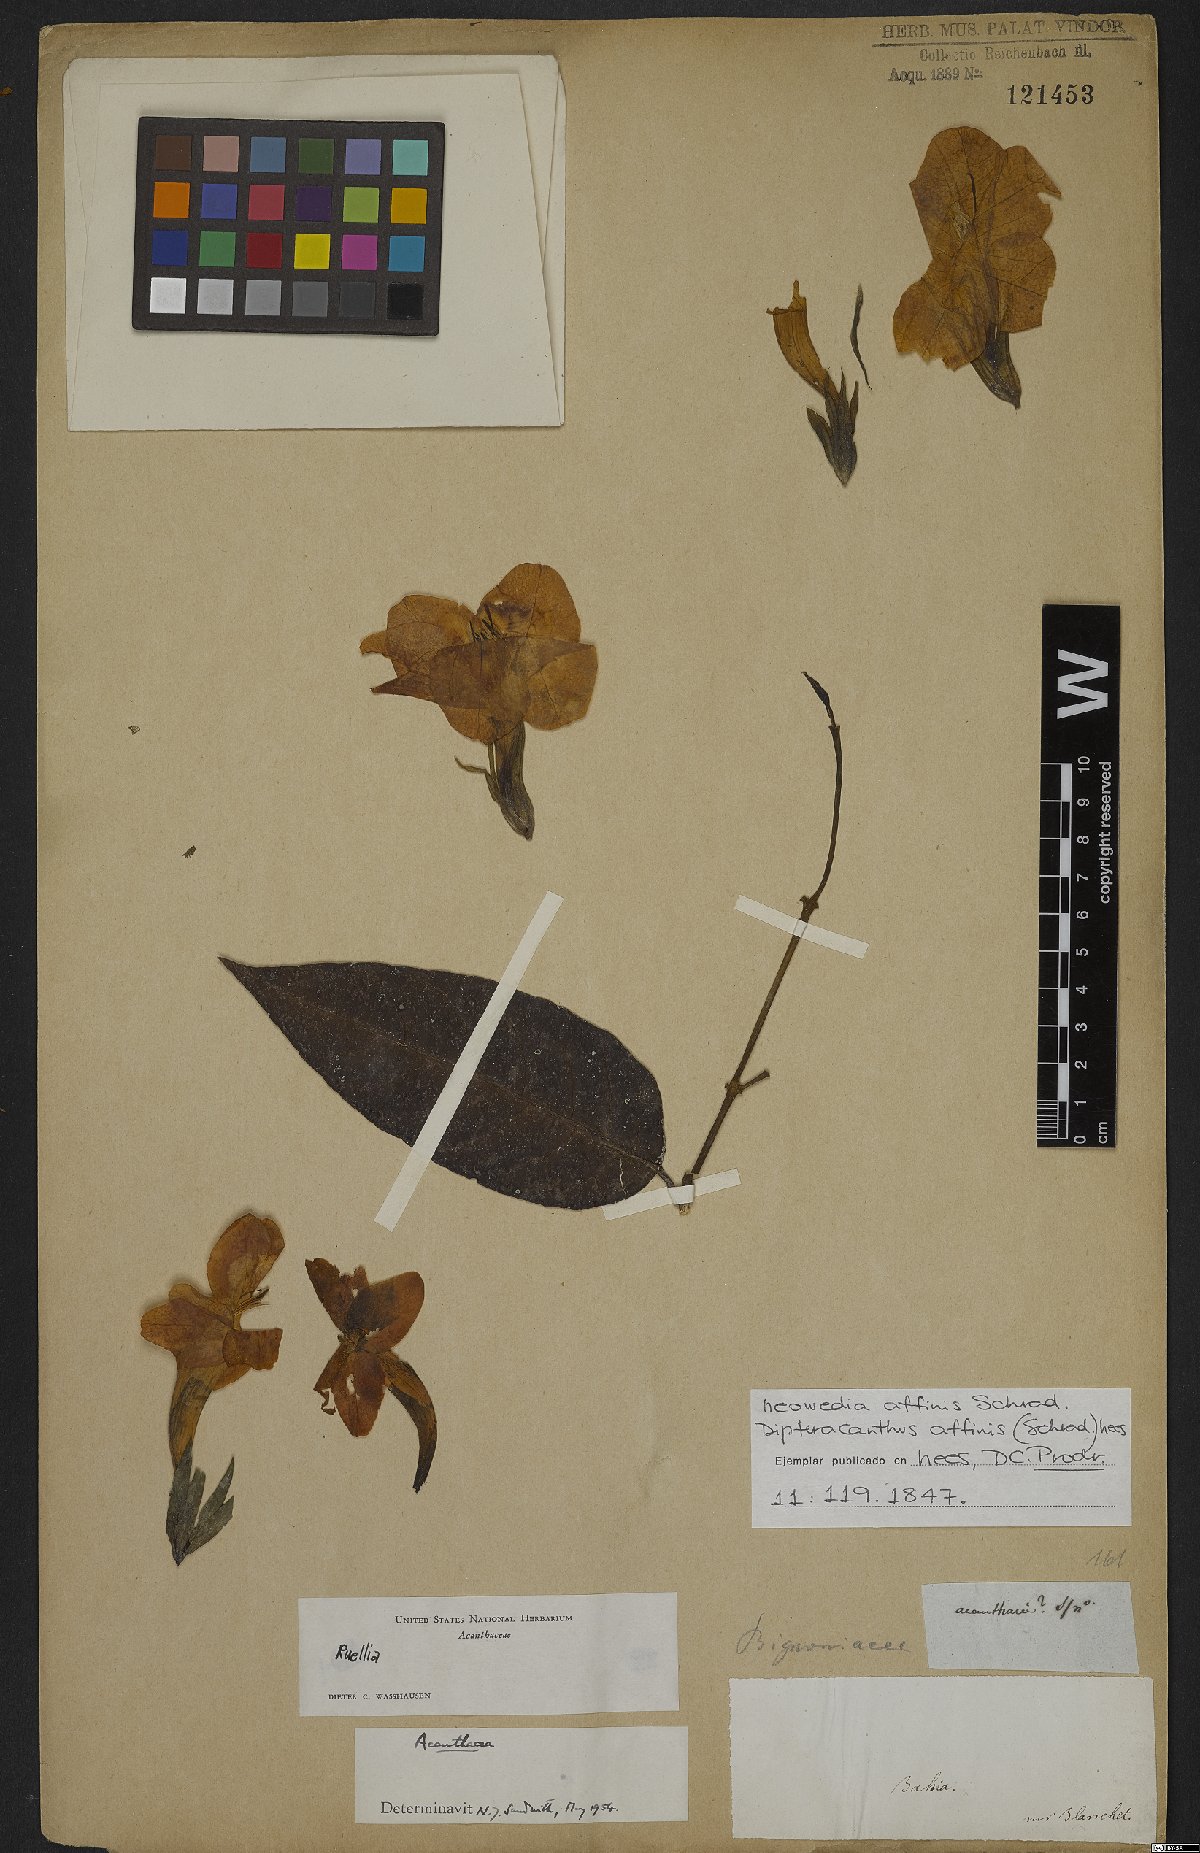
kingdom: Plantae
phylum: Tracheophyta
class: Magnoliopsida
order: Lamiales
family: Acanthaceae
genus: Ruellia
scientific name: Ruellia
